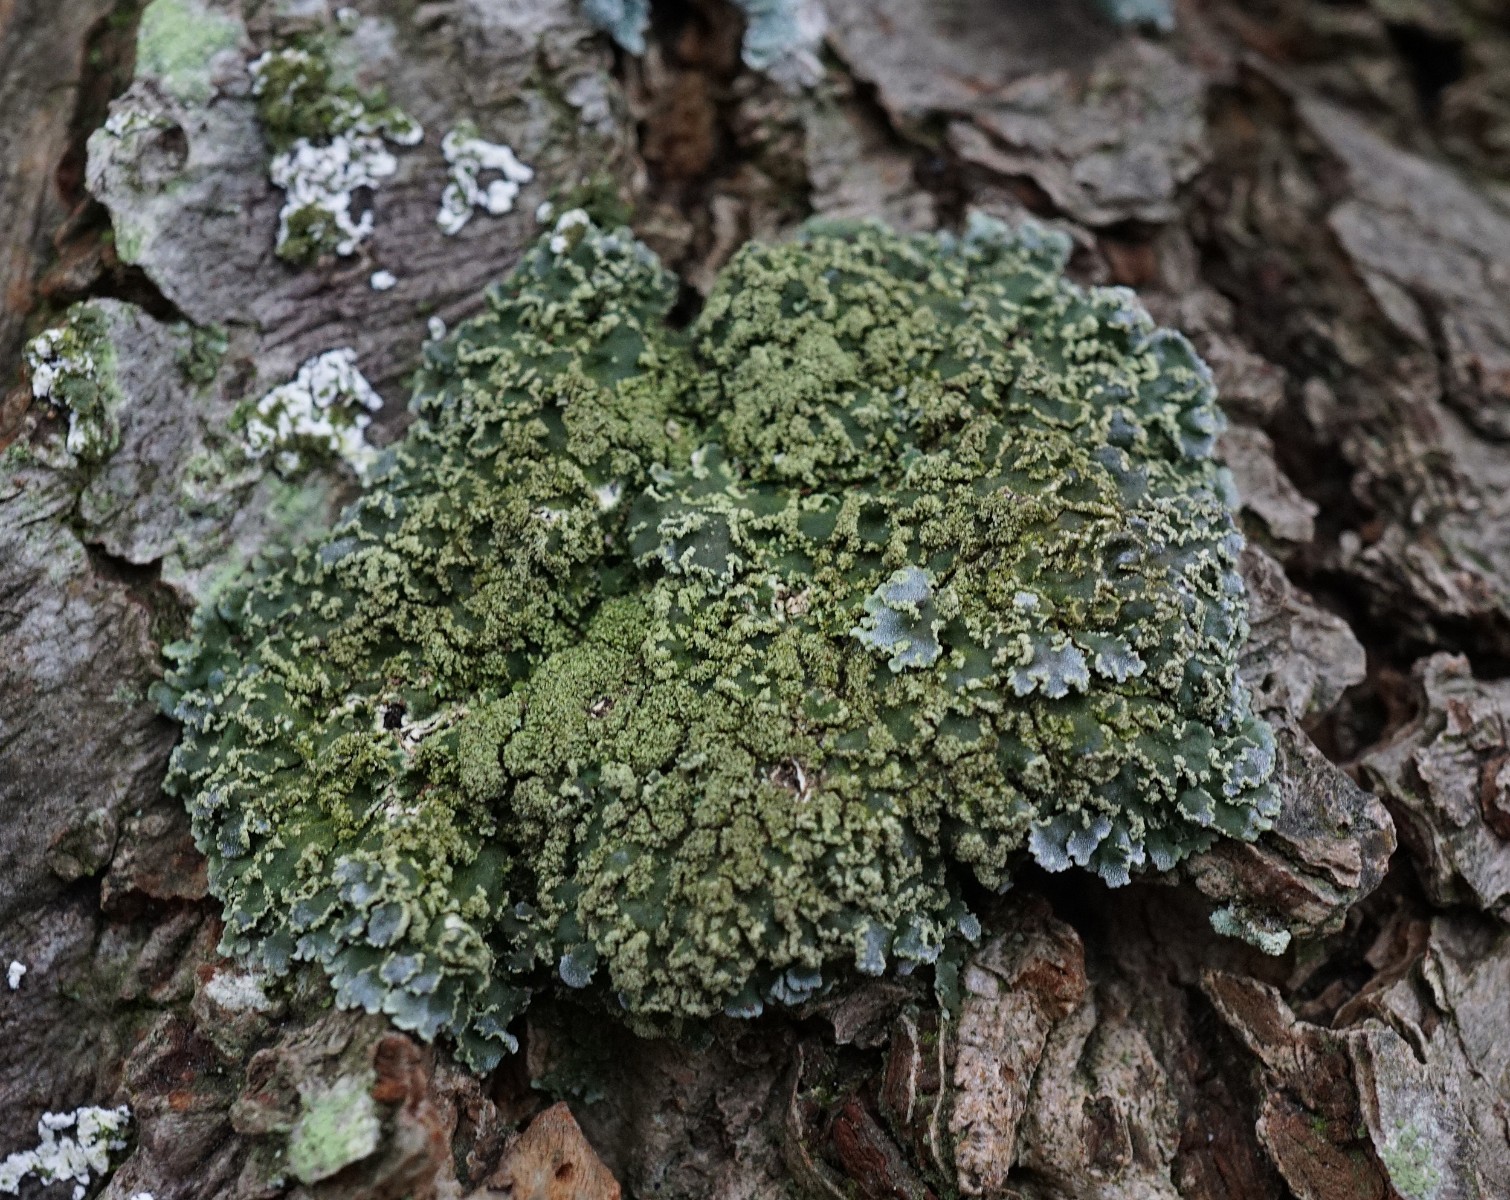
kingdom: Fungi
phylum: Ascomycota
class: Lecanoromycetes
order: Caliciales
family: Physciaceae
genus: Physconia
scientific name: Physconia enteroxantha
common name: grynet dugrosetlav
